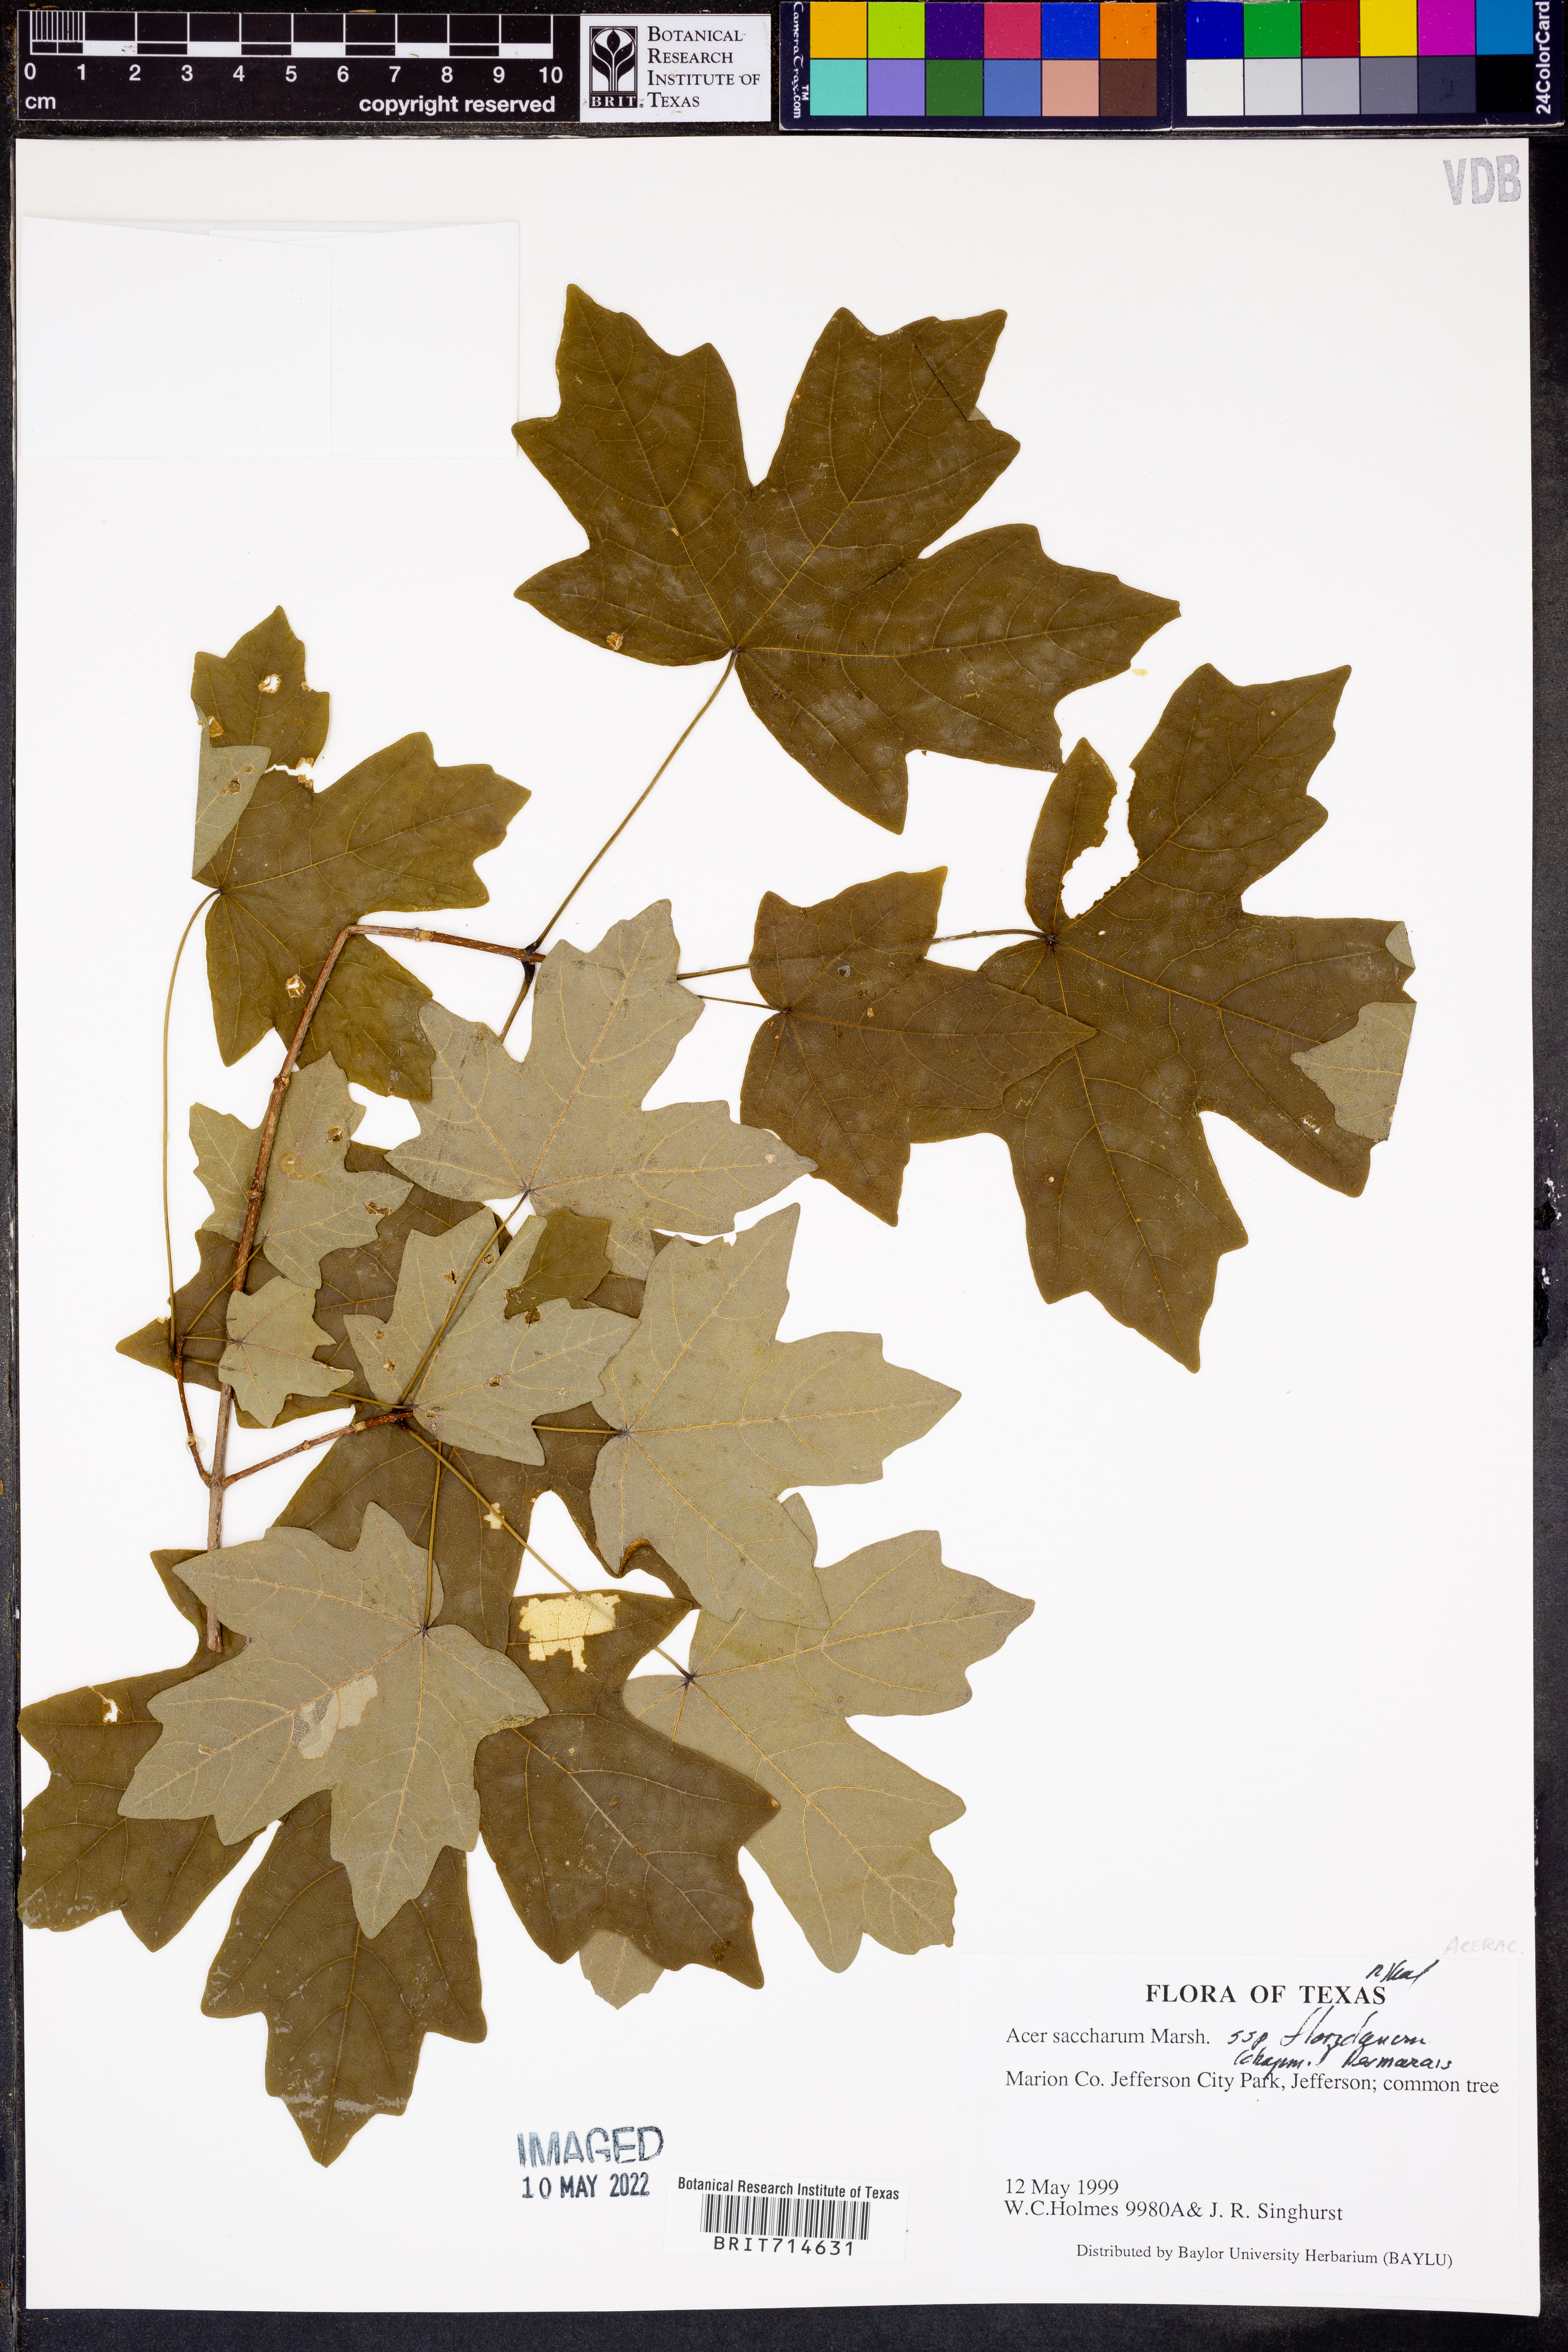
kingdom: Plantae
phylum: Tracheophyta
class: Magnoliopsida
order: Sapindales
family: Sapindaceae
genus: Acer
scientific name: Acer saccharum
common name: Sugar maple
